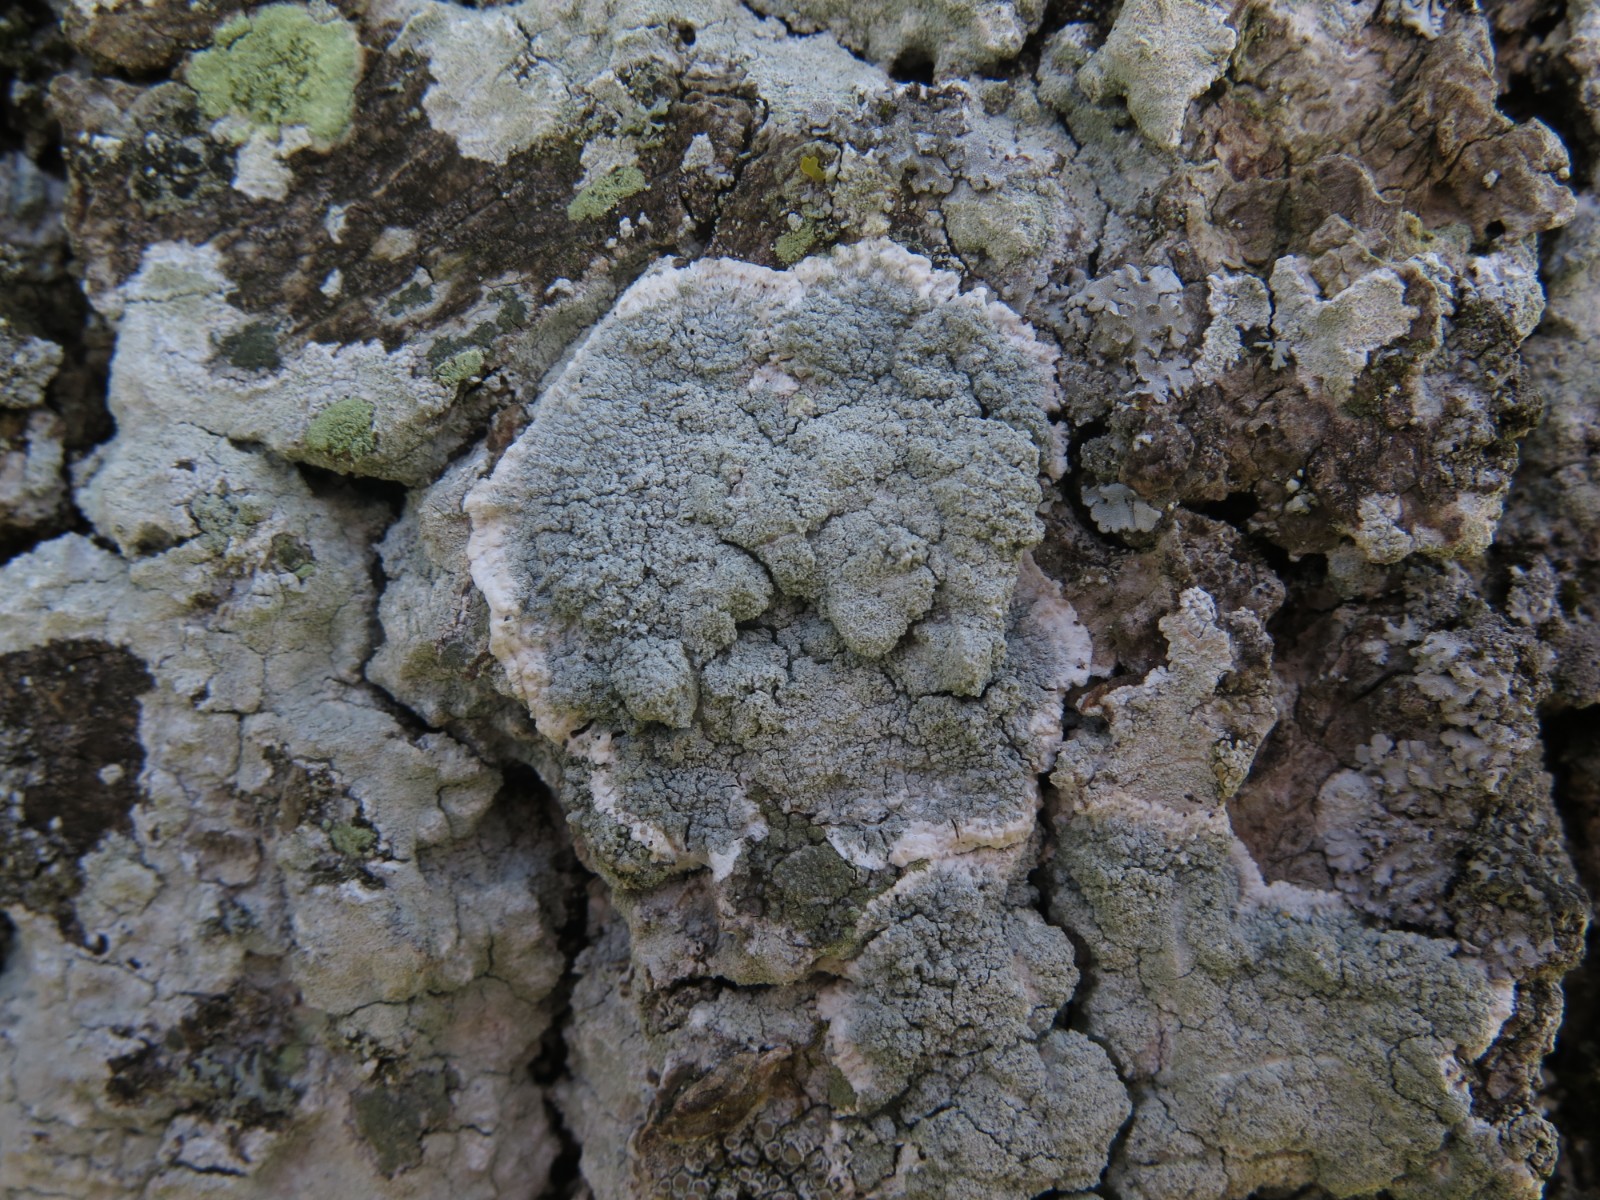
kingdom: Fungi
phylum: Ascomycota
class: Lecanoromycetes
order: Lecanorales
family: Haematommataceae
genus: Haematomma
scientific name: Haematomma ochroleucum
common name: gul trådkantlav
